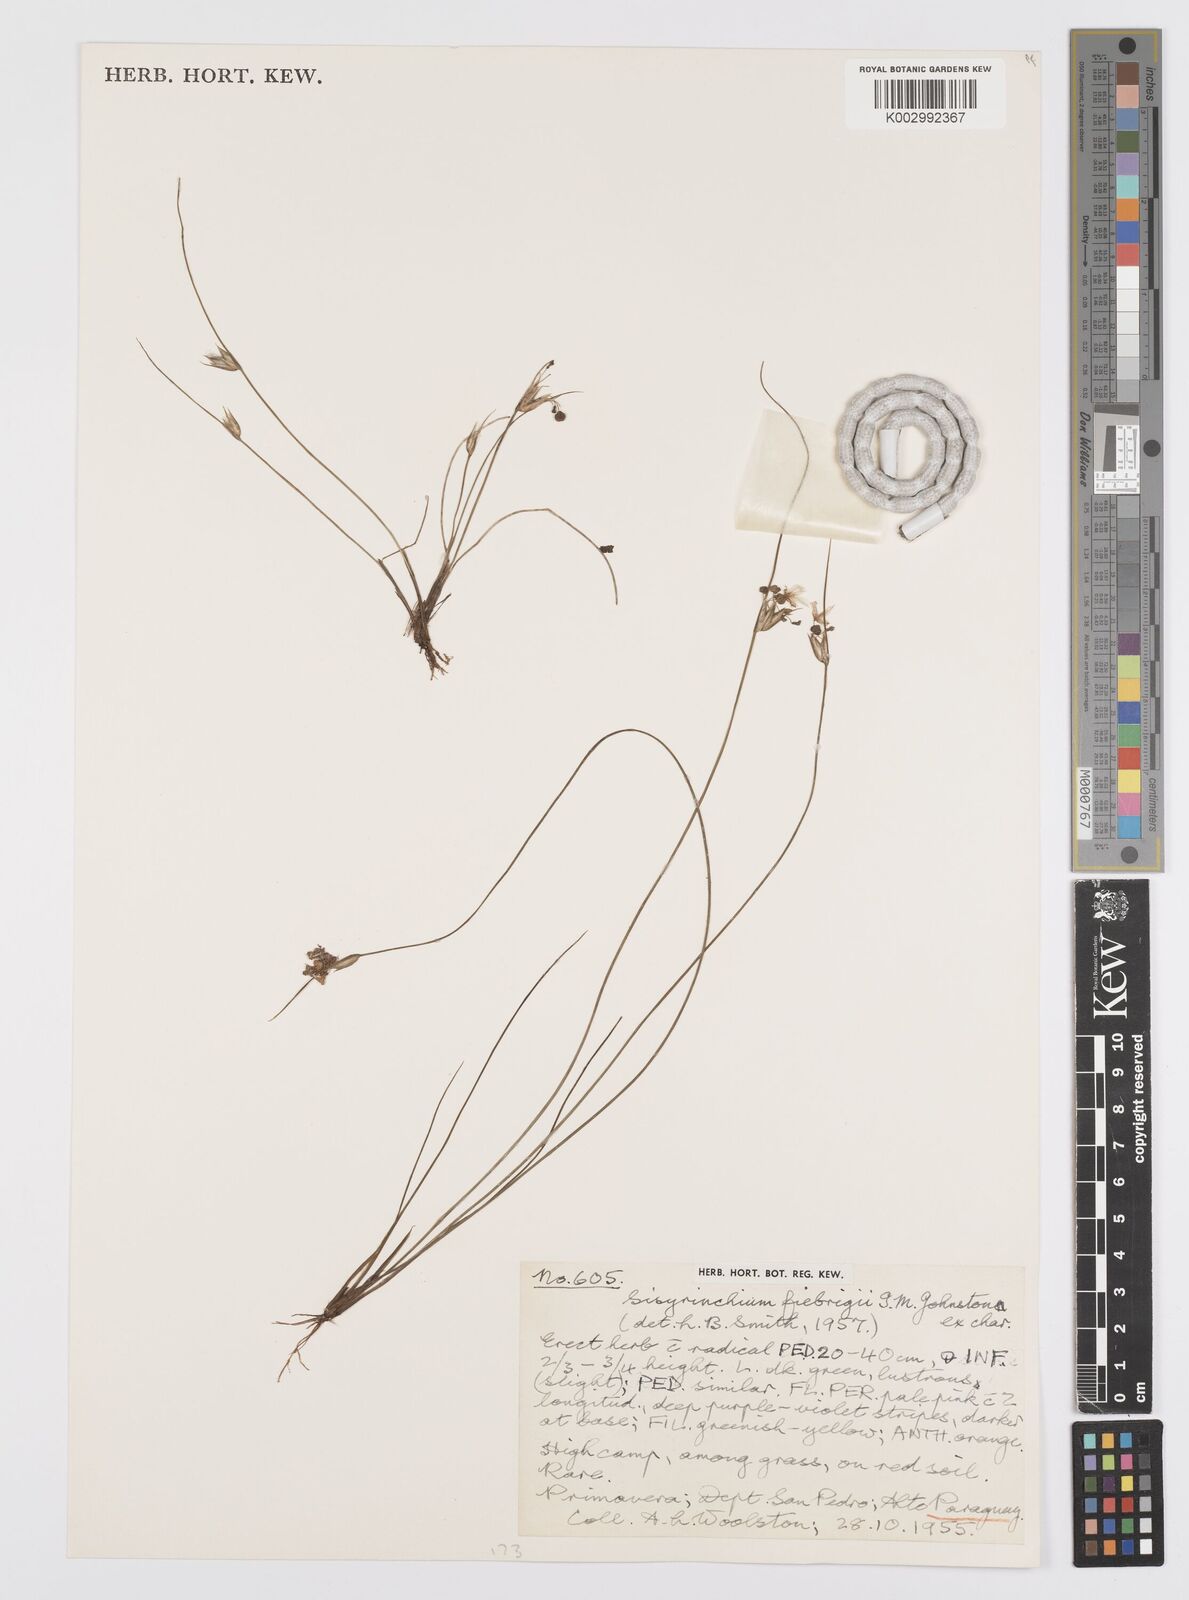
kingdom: Plantae
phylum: Tracheophyta
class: Liliopsida
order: Asparagales
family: Iridaceae
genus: Sisyrinchium
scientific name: Sisyrinchium fiebrigii
